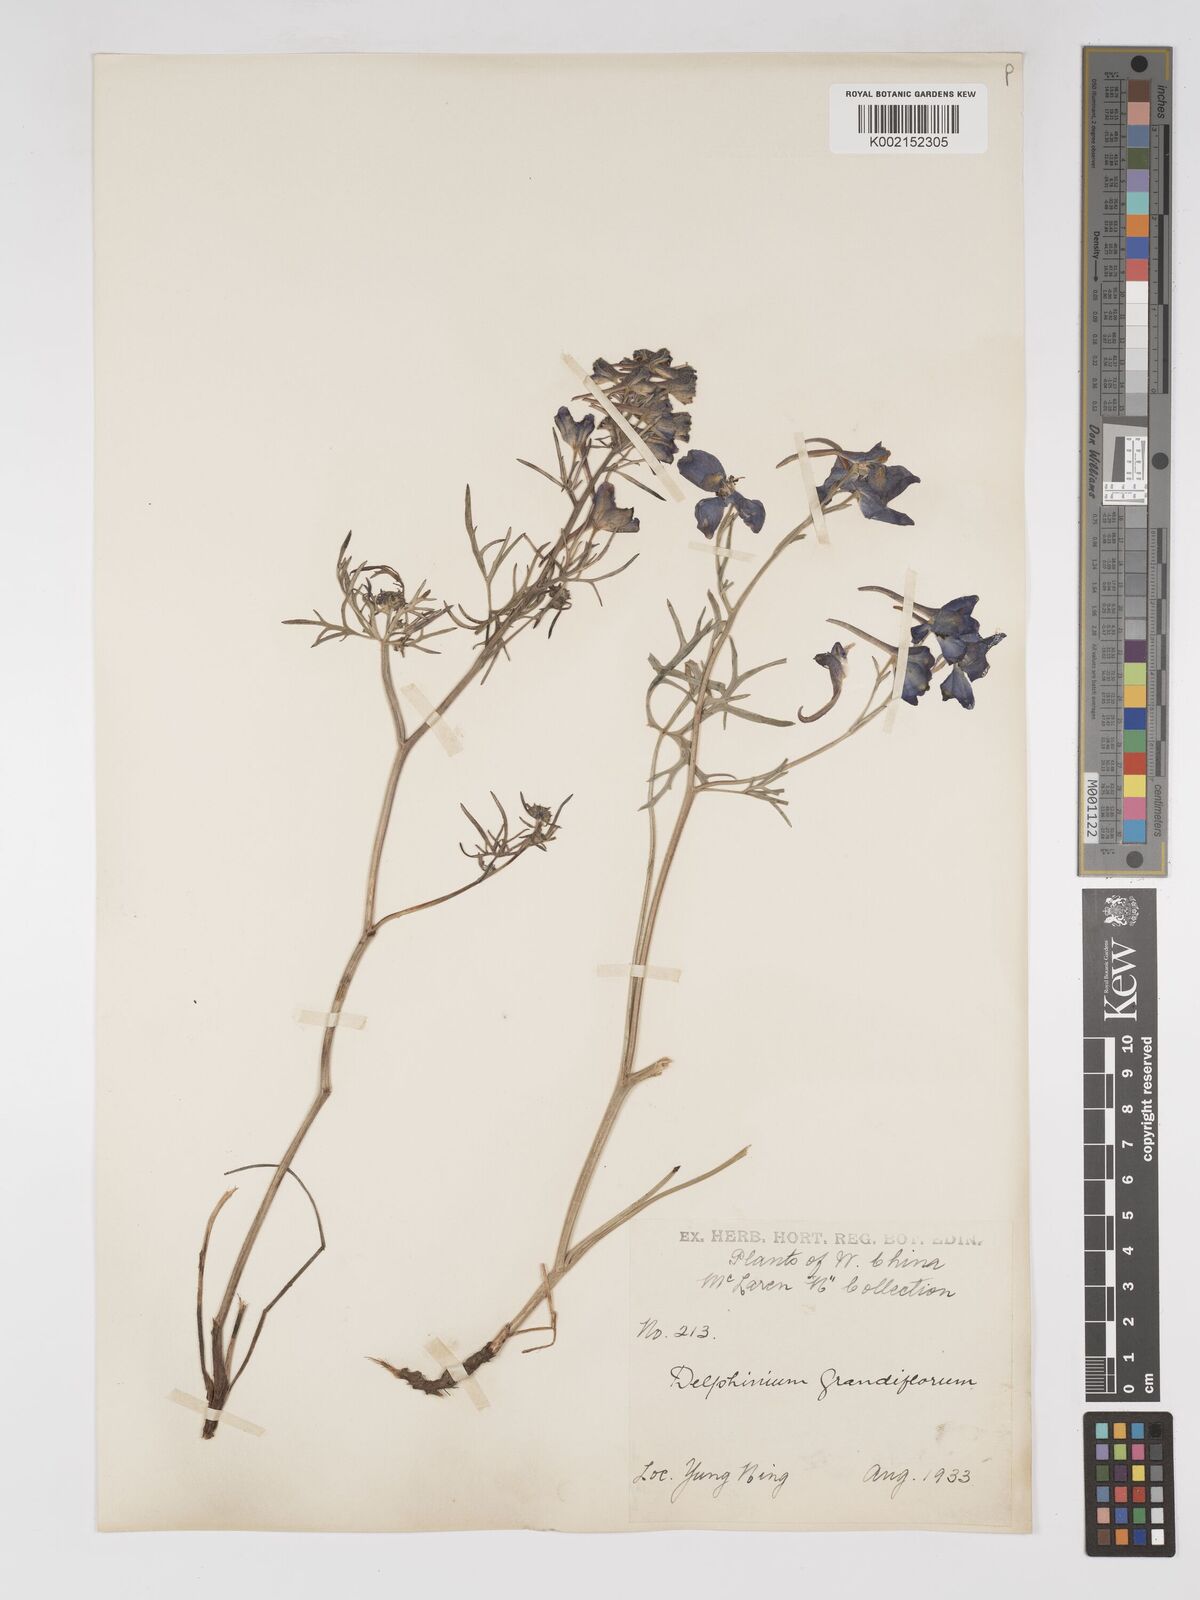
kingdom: Plantae
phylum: Tracheophyta
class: Magnoliopsida
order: Ranunculales
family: Ranunculaceae
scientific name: Ranunculaceae
